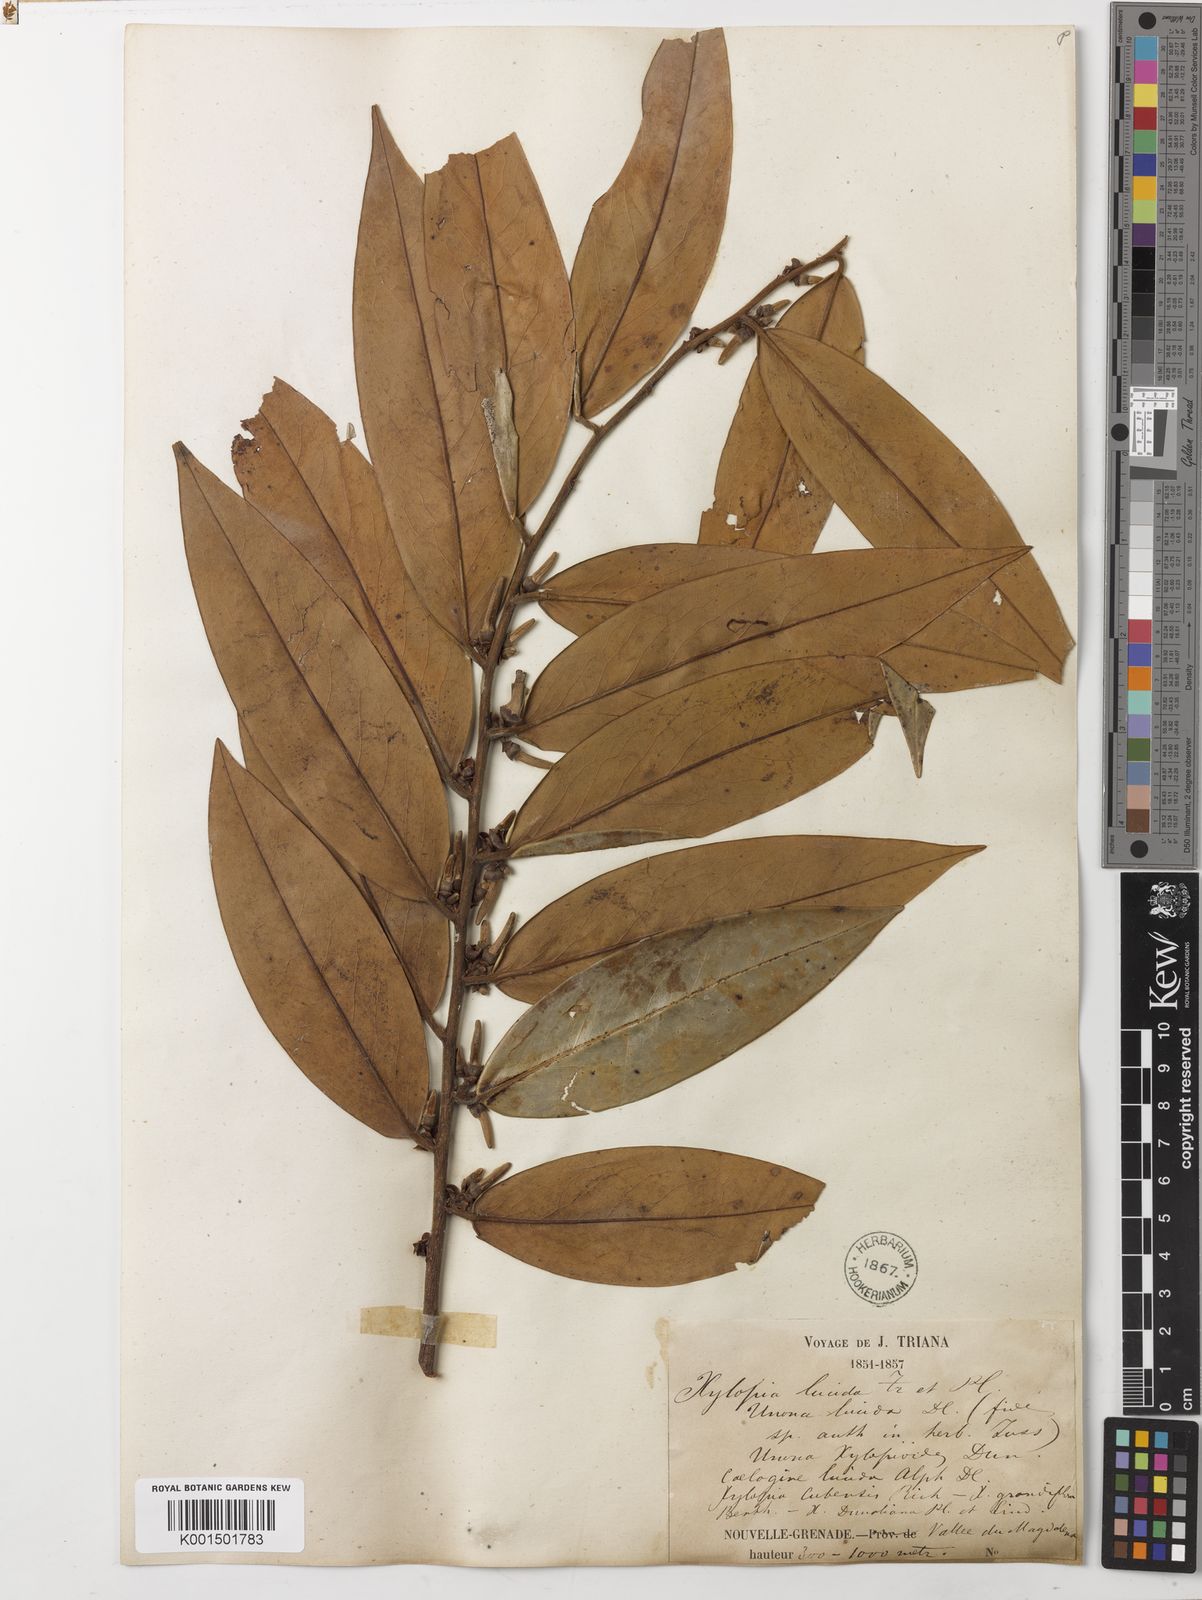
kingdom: Plantae
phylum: Tracheophyta
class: Magnoliopsida
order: Magnoliales
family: Annonaceae
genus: Xylopia
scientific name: Xylopia aromatica
